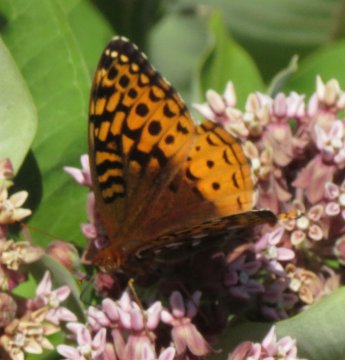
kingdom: Animalia
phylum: Arthropoda
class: Insecta
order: Lepidoptera
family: Nymphalidae
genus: Speyeria
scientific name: Speyeria cybele
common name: Great Spangled Fritillary
